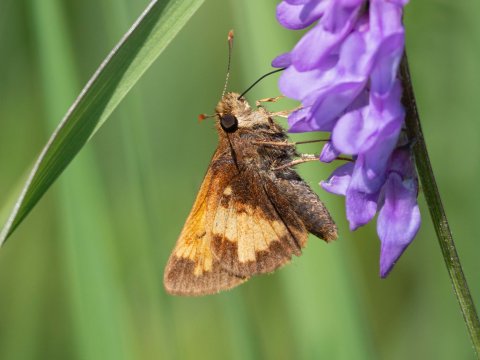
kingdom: Animalia
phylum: Arthropoda
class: Insecta
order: Lepidoptera
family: Hesperiidae
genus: Lon
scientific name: Lon hobomok
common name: Hobomok Skipper
